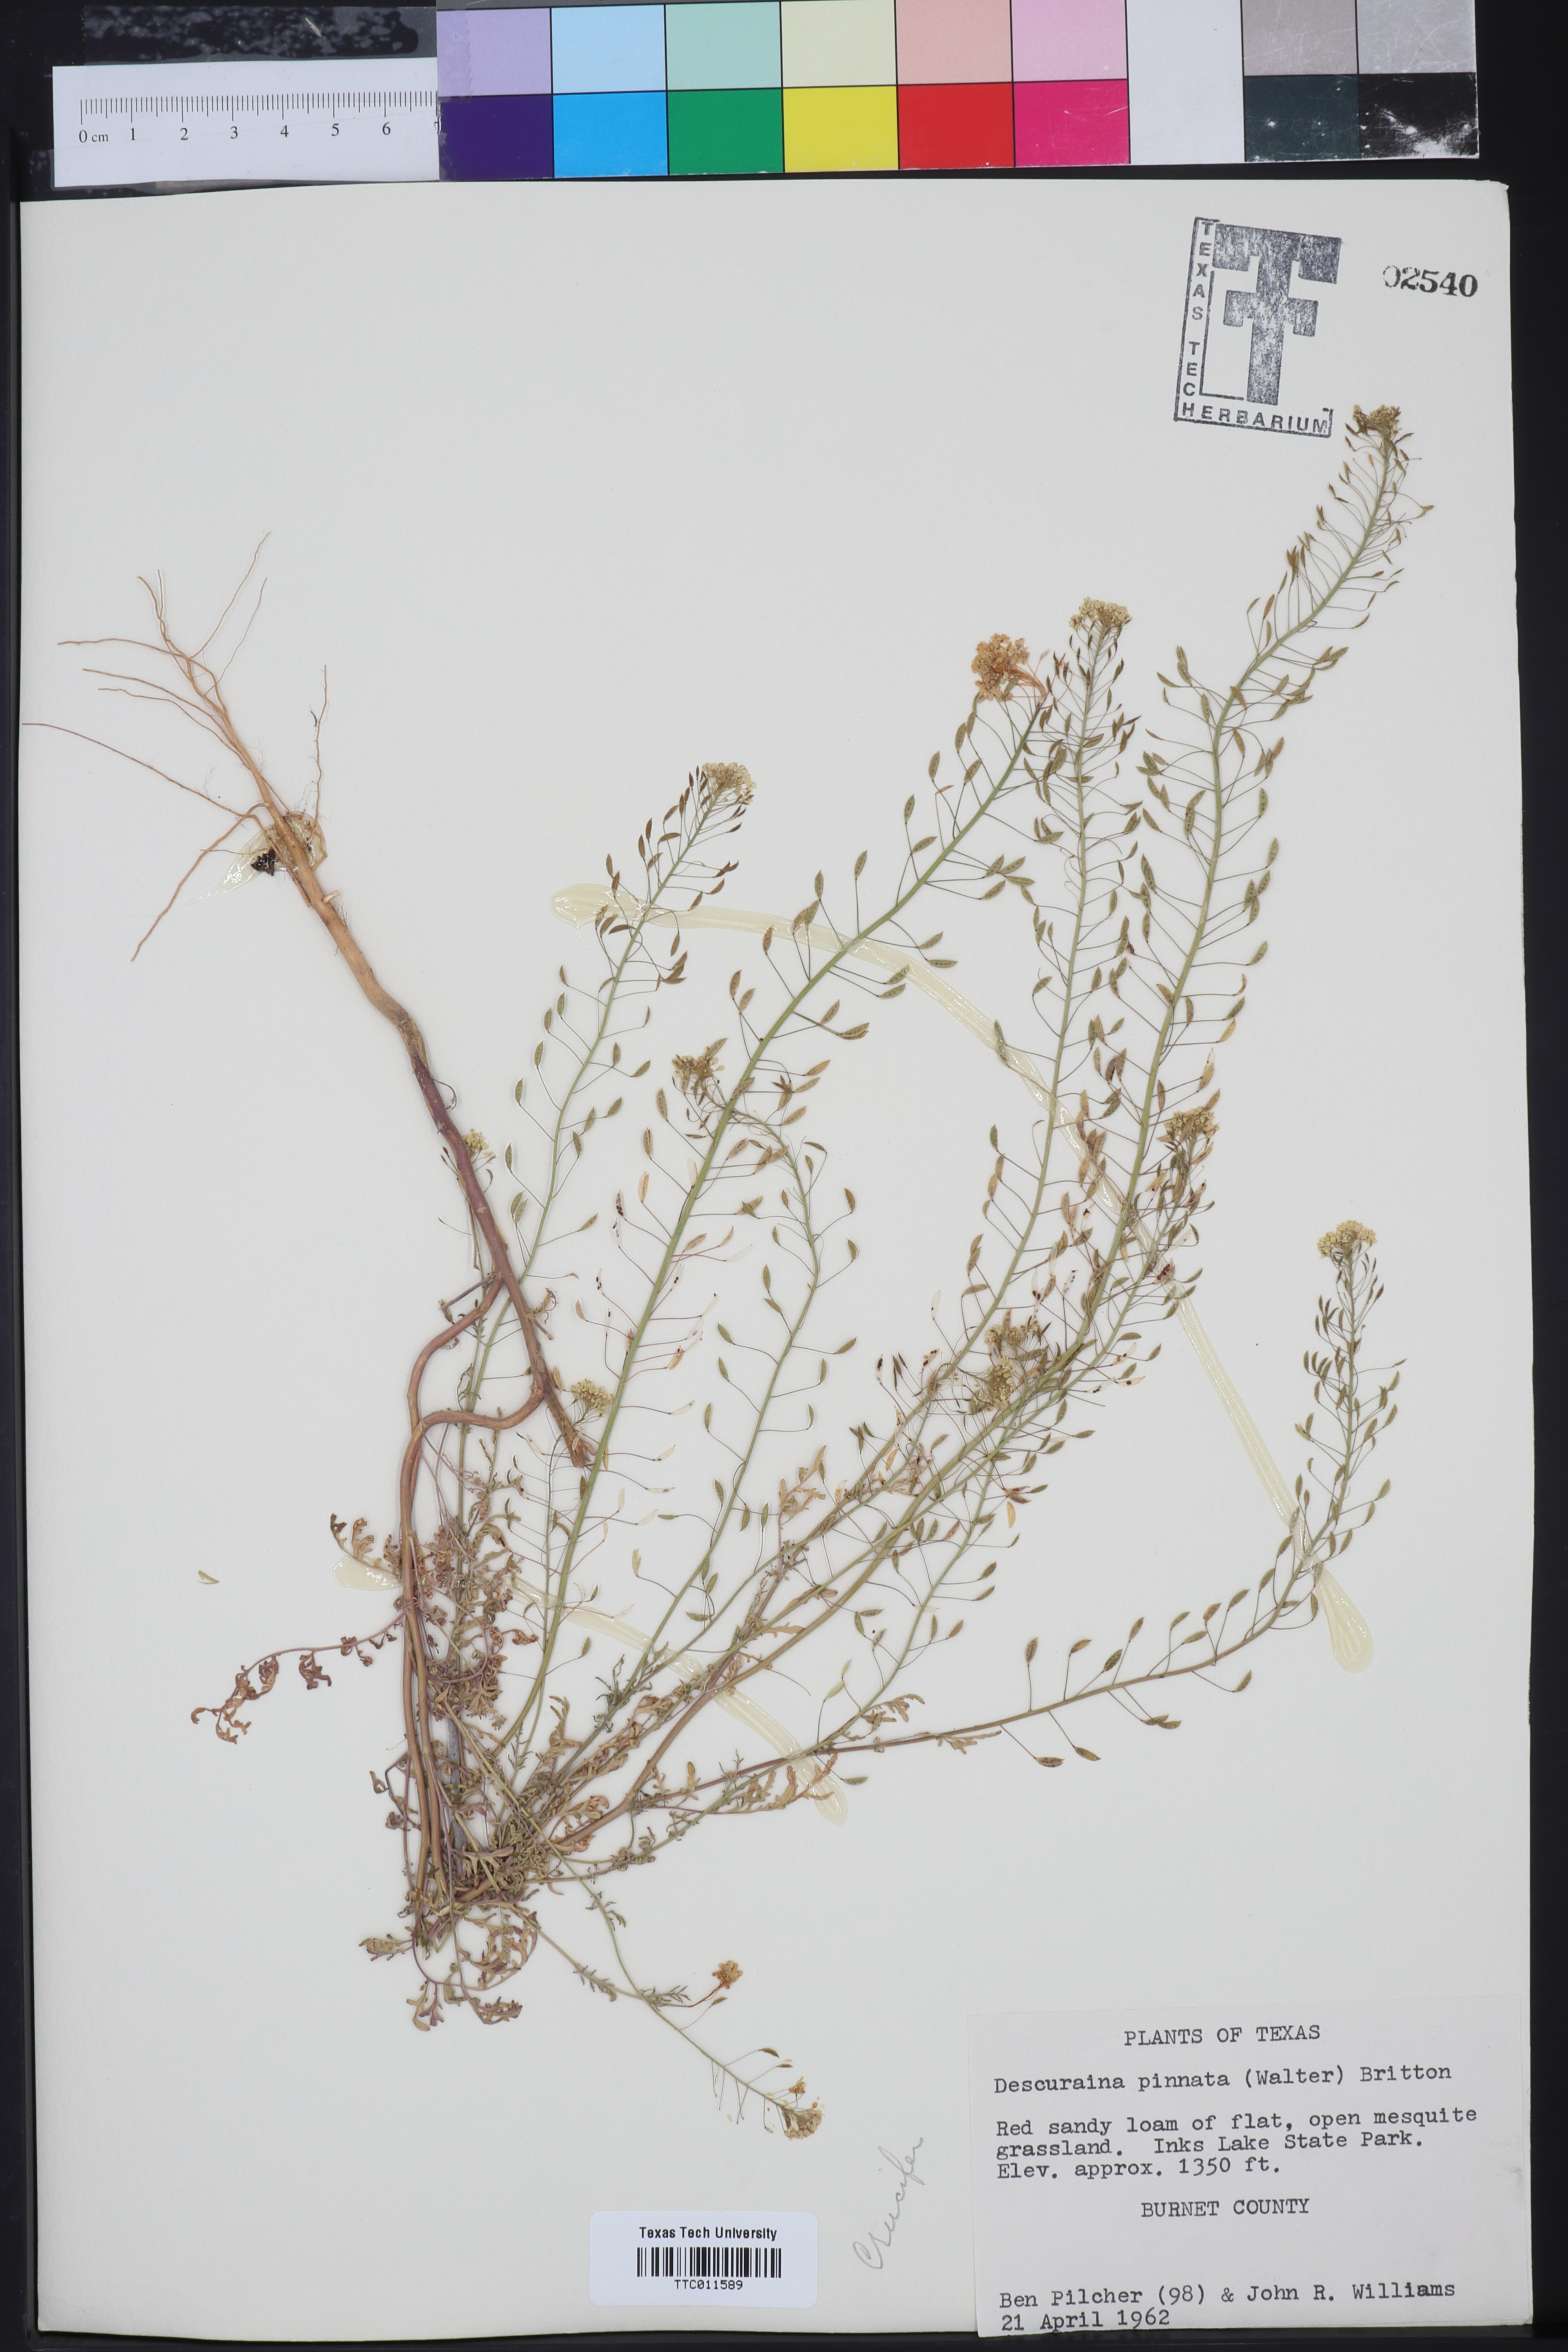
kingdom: Plantae
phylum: Tracheophyta
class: Magnoliopsida
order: Brassicales
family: Brassicaceae
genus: Descurainia
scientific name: Descurainia pinnata
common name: Western tansy mustard
